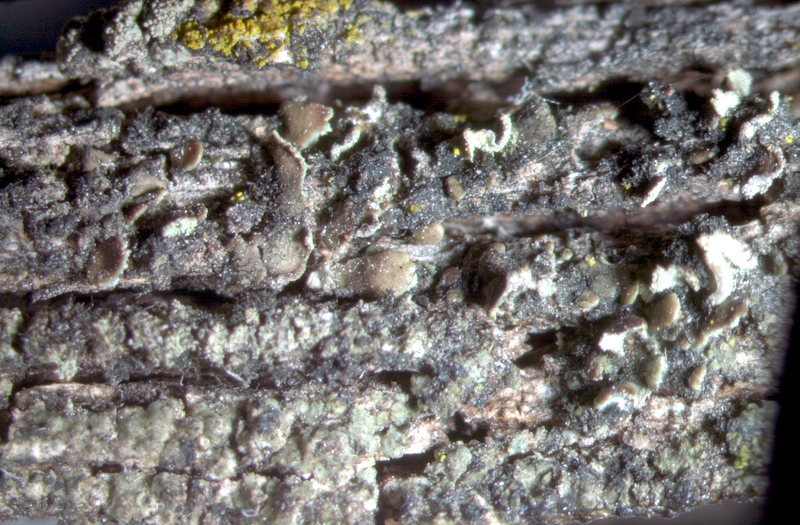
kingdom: Fungi
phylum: Ascomycota
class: Lecanoromycetes
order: Lecanorales
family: Carbonicolaceae
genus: Carbonicola
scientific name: Carbonicola anthracophila
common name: Small clam lichen
